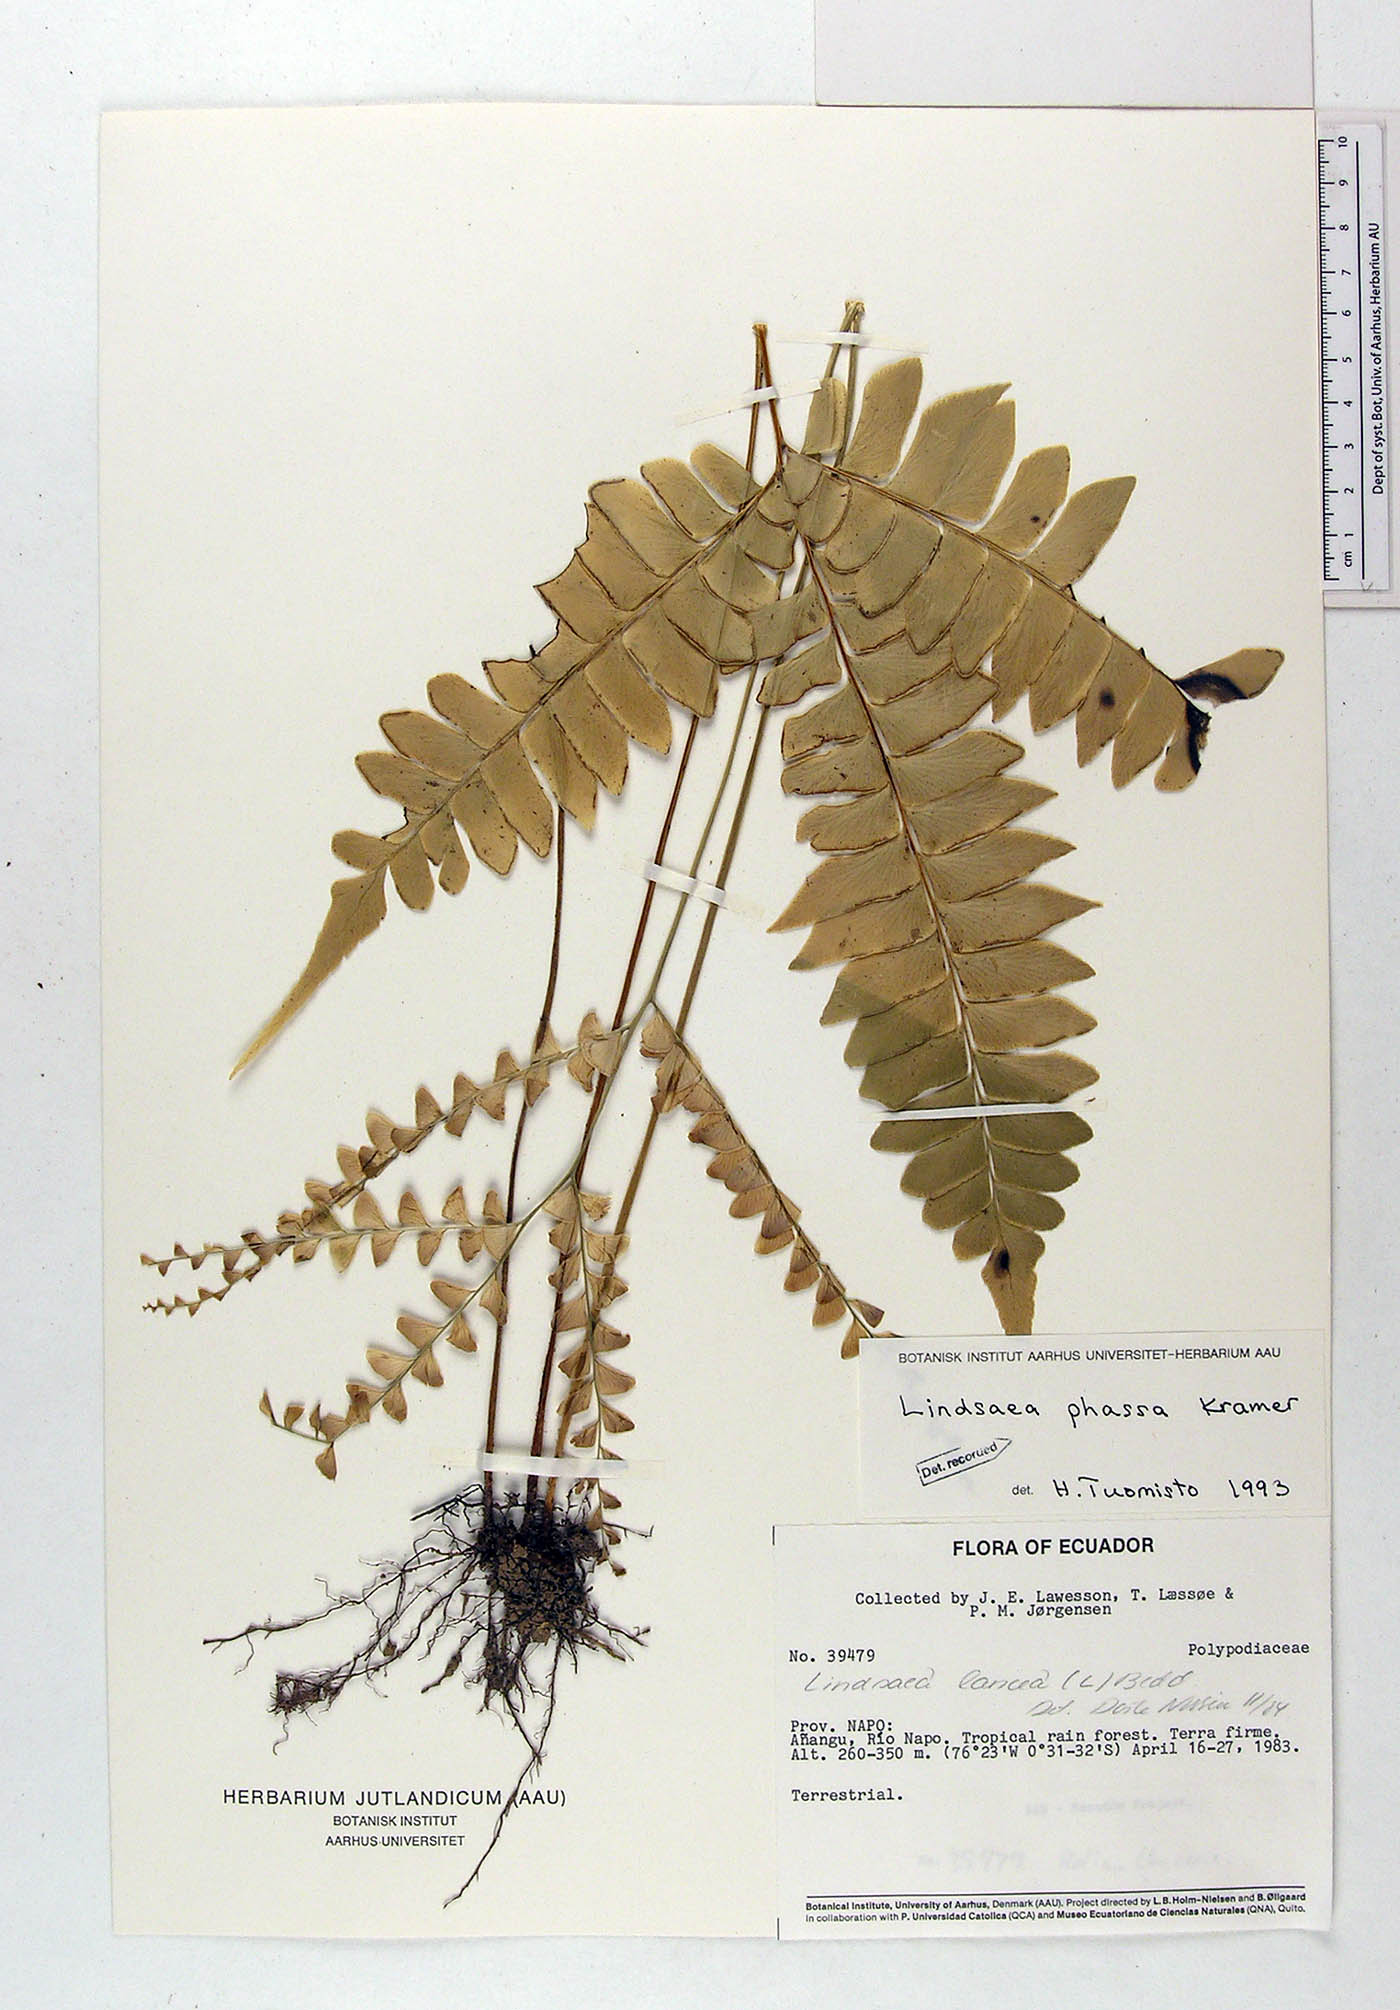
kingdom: Plantae
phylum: Tracheophyta
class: Polypodiopsida
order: Polypodiales
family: Lindsaeaceae
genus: Lindsaea
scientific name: Lindsaea phassa
